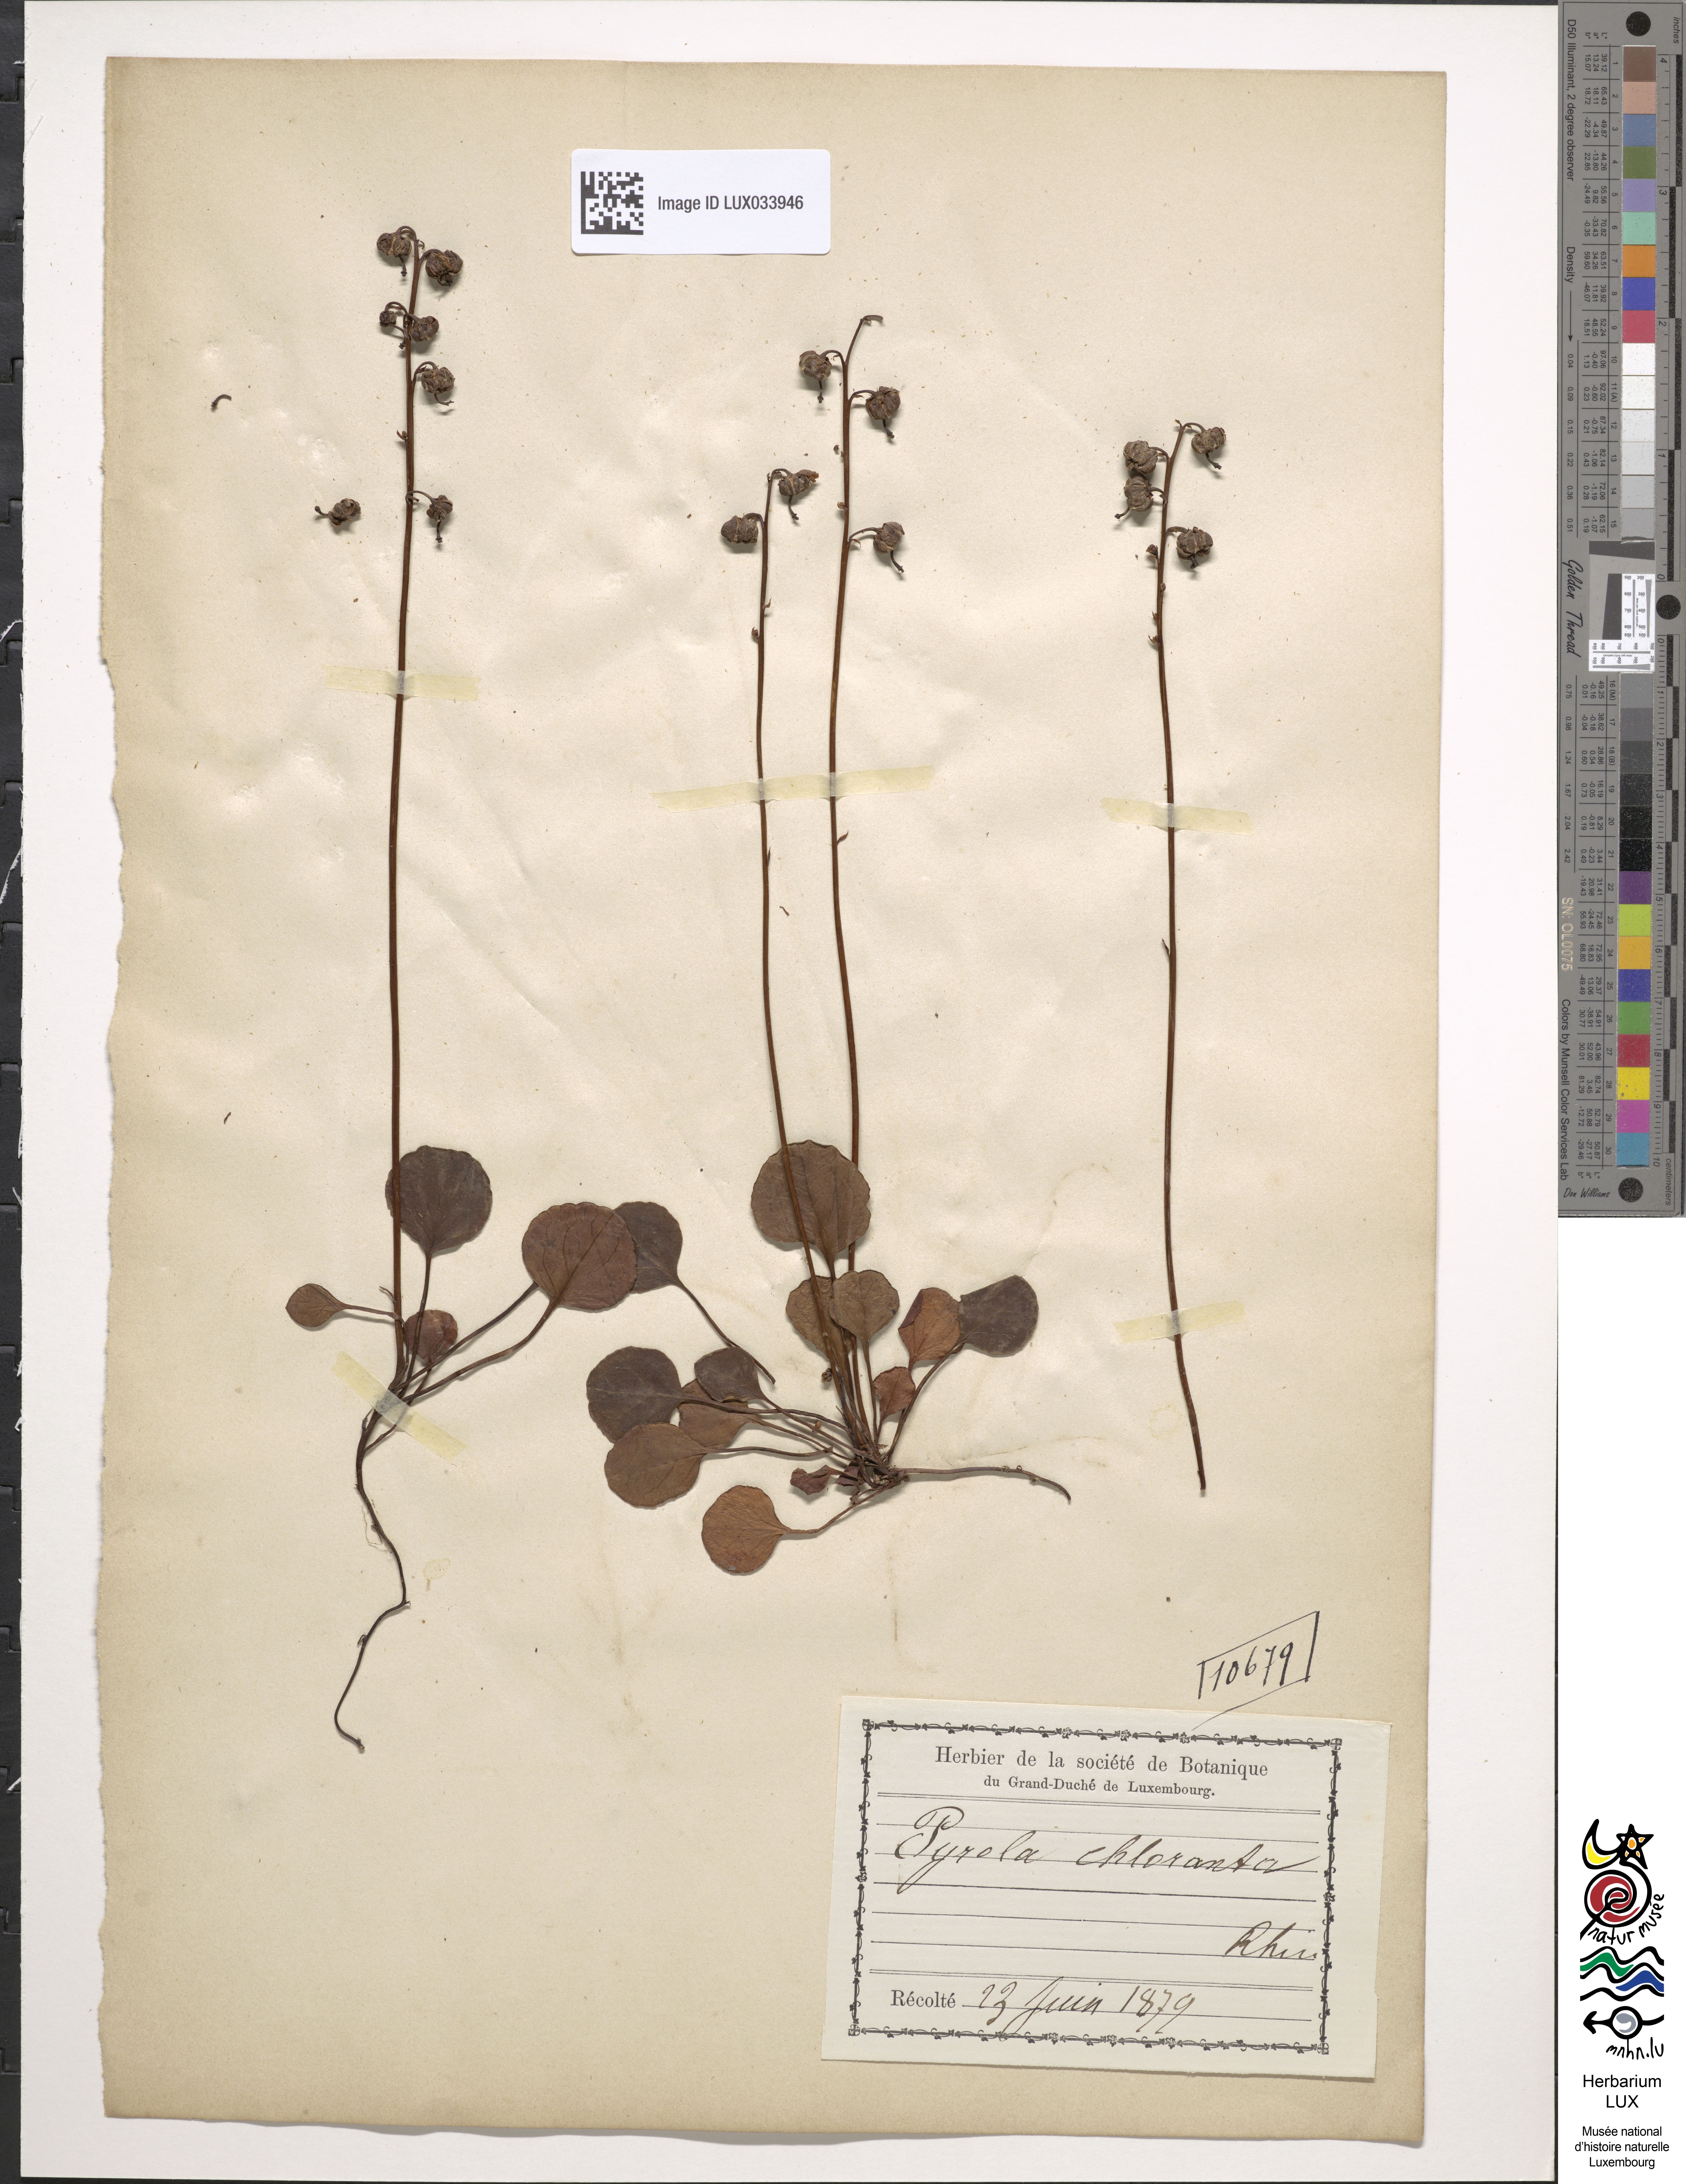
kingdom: Plantae
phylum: Tracheophyta
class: Magnoliopsida
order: Ericales
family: Ericaceae
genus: Pyrola
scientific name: Pyrola chlorantha
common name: Green wintergreen
